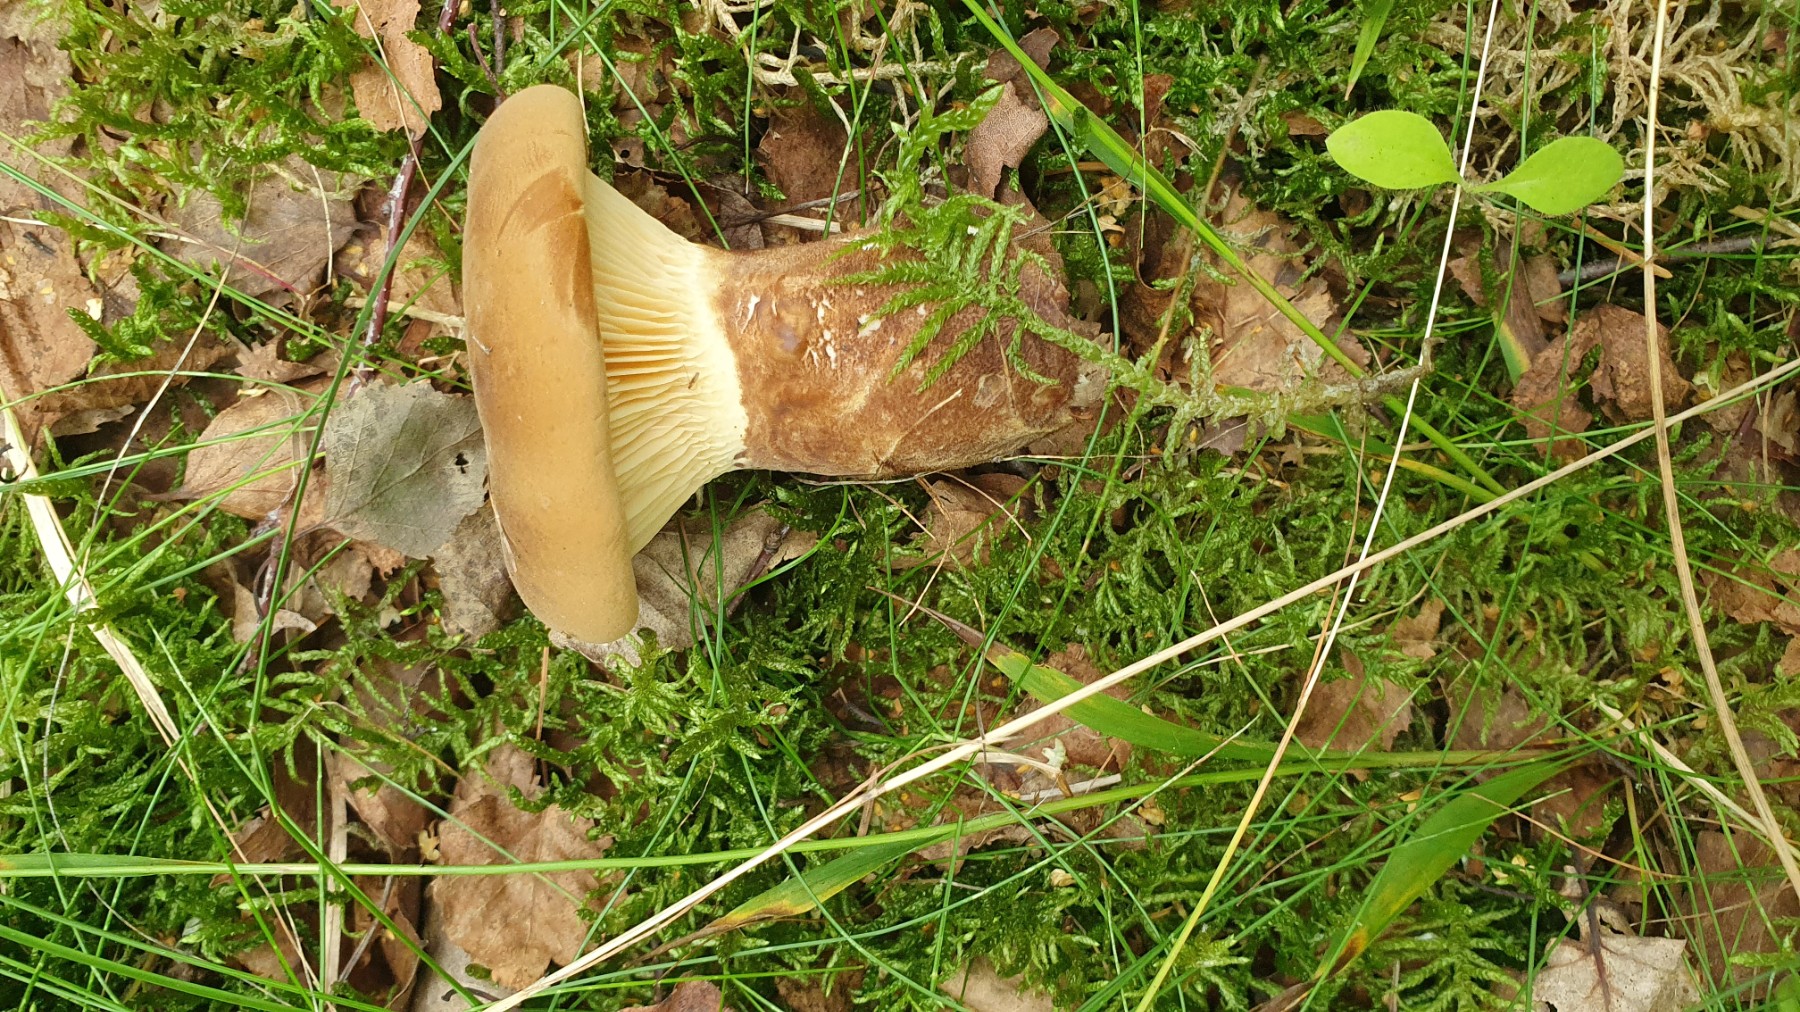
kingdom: Fungi
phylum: Basidiomycota
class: Agaricomycetes
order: Boletales
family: Tapinellaceae
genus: Tapinella
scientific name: Tapinella atrotomentosa
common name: sortfiltet viftesvamp
